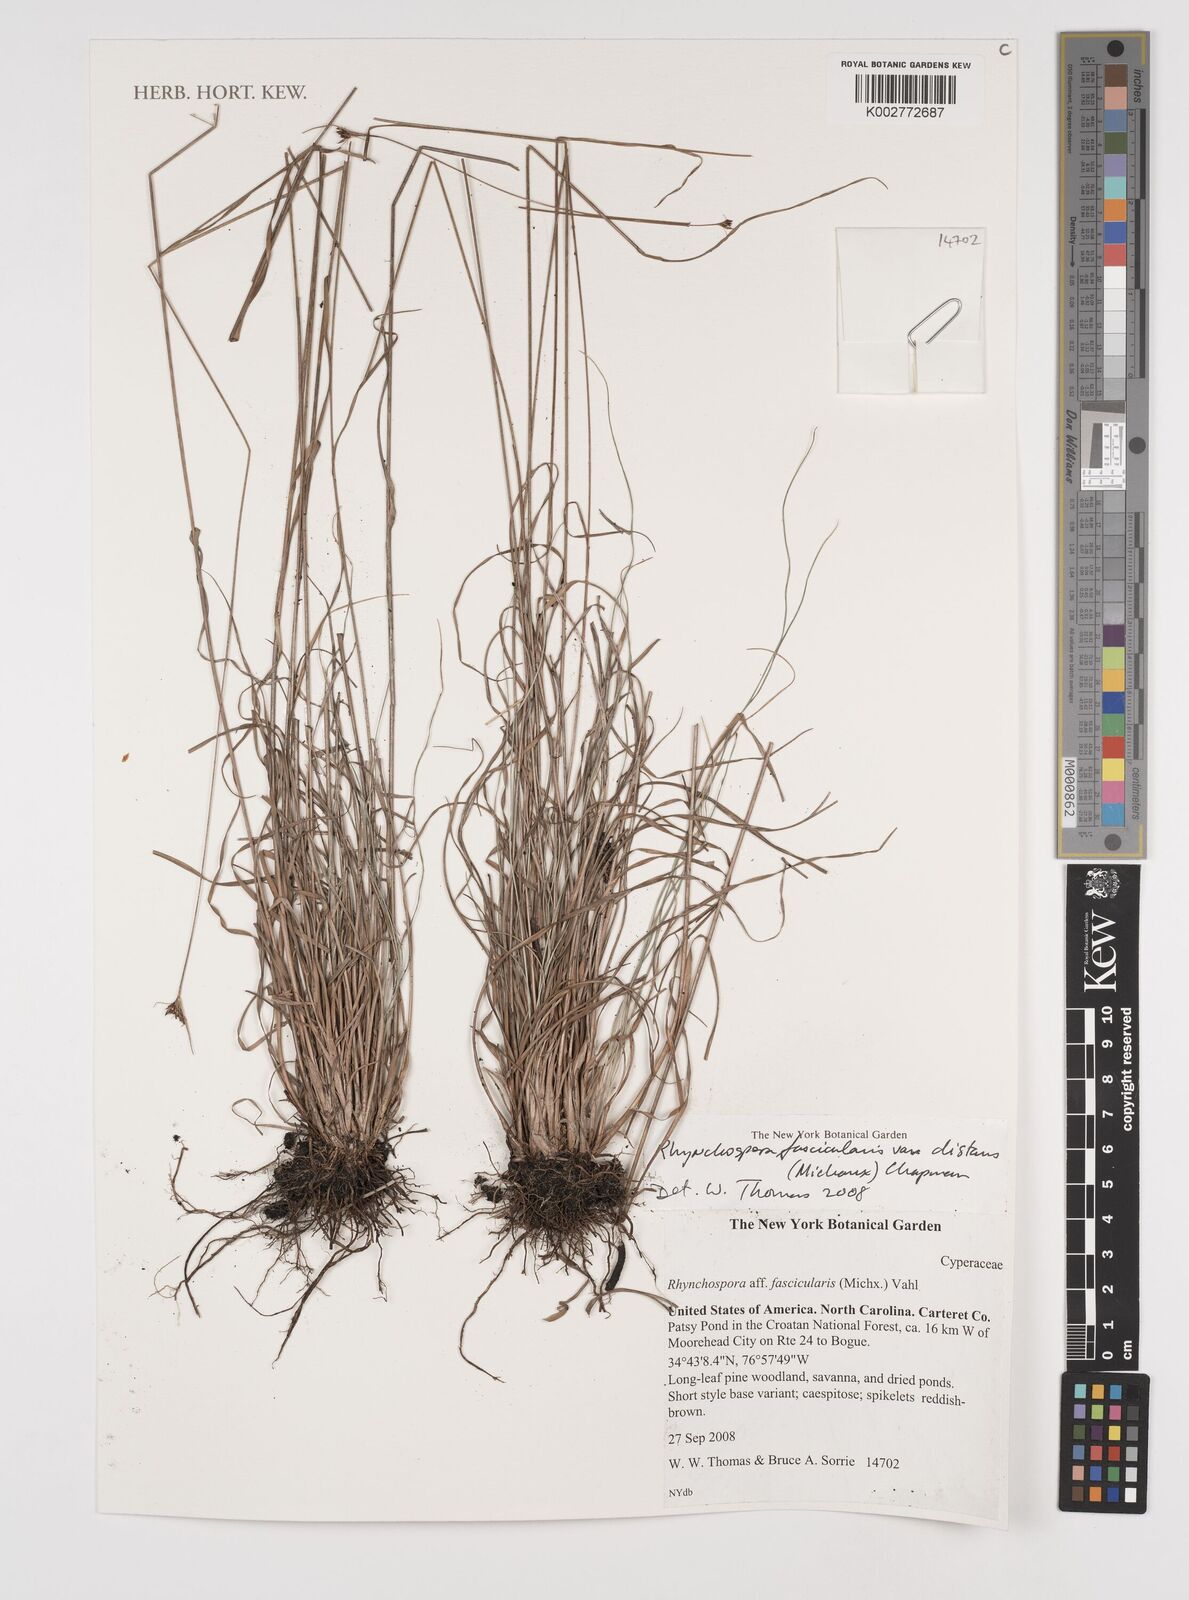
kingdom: Plantae
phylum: Tracheophyta
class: Liliopsida
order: Poales
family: Cyperaceae
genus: Rhynchospora
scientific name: Rhynchospora fascicularis
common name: Fascicled beak sedge
